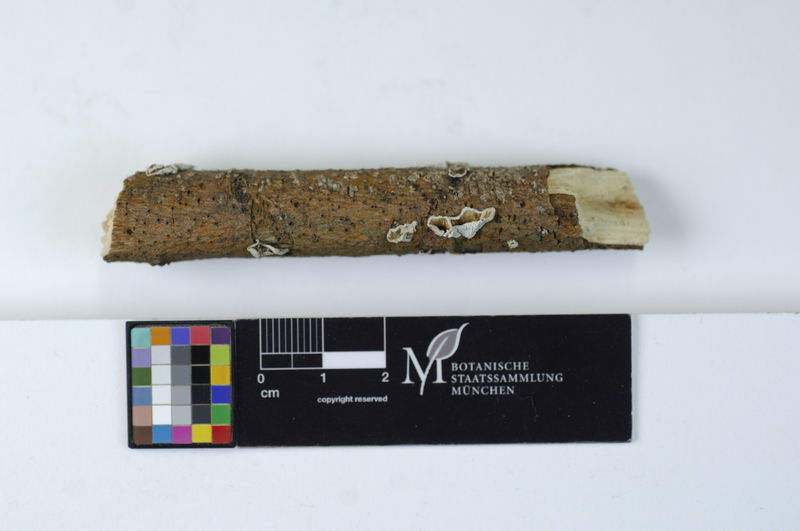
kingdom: Fungi
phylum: Basidiomycota
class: Agaricomycetes
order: Agaricales
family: Schizophyllaceae
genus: Schizophyllum
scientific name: Schizophyllum amplum
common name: Poplar bells
